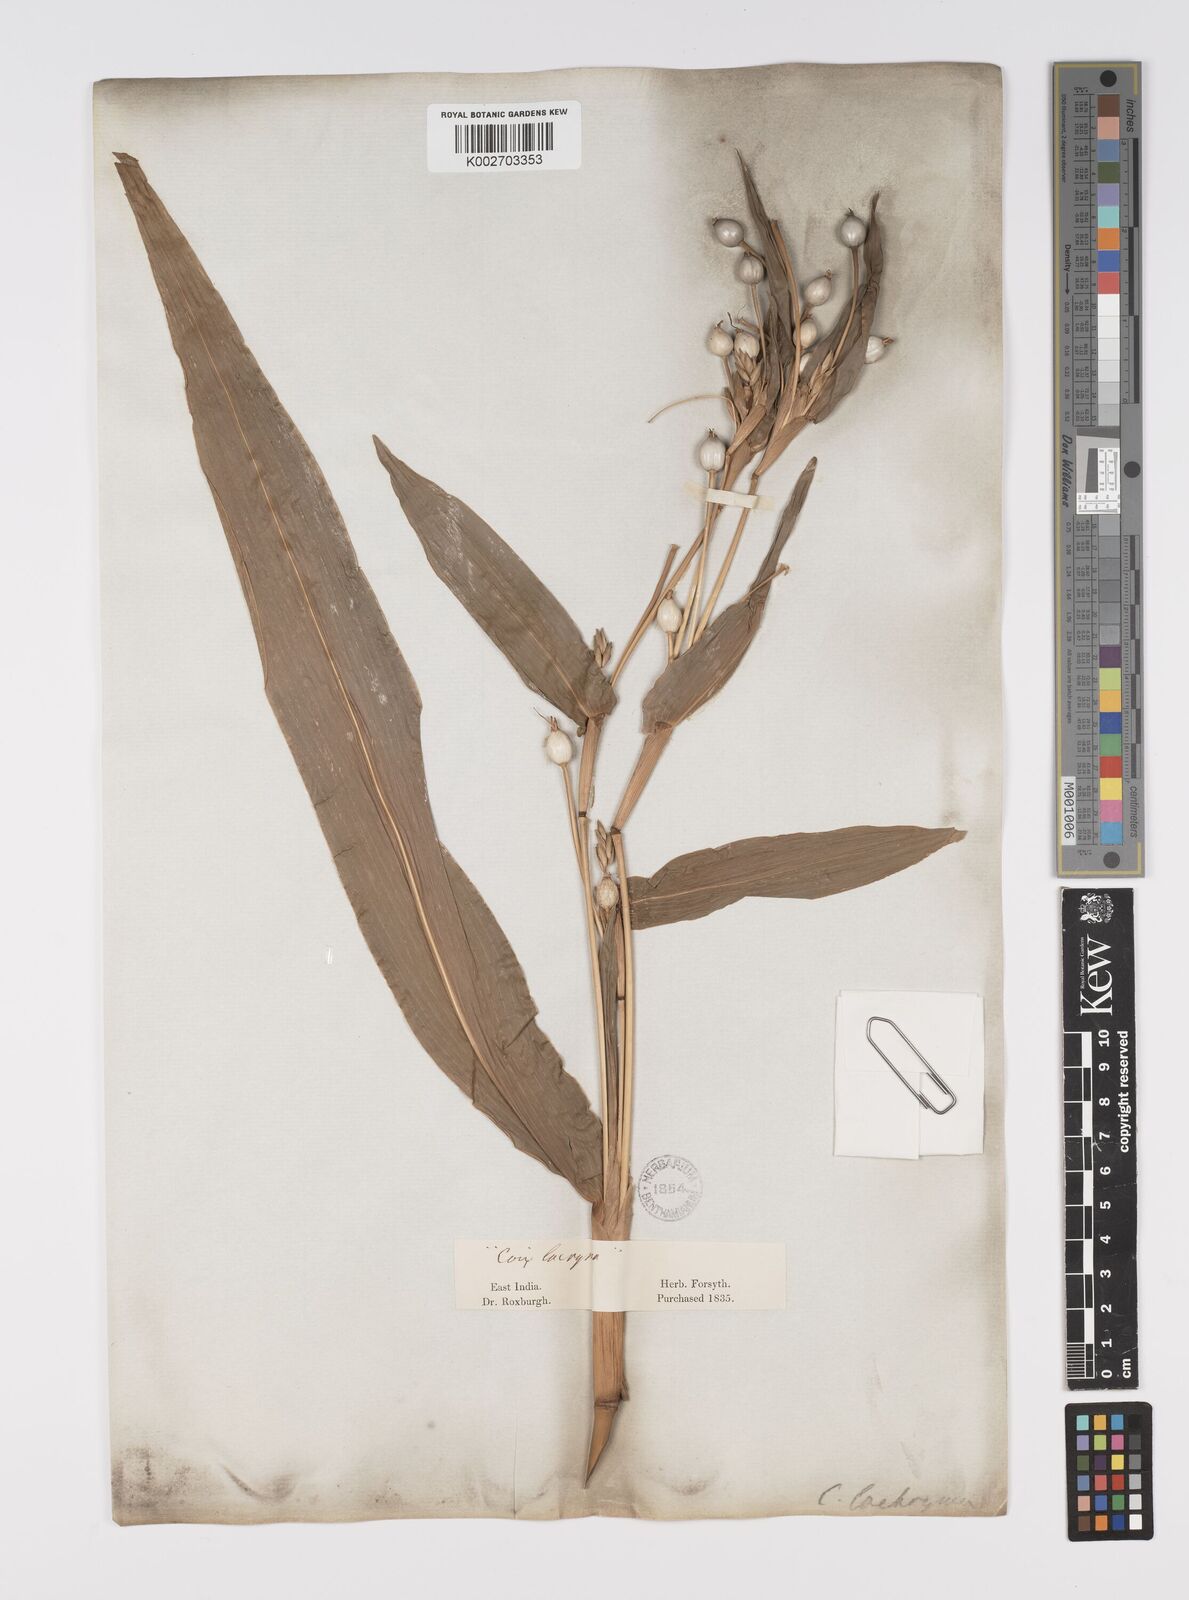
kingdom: Plantae
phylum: Tracheophyta
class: Liliopsida
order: Poales
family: Poaceae
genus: Coix
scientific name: Coix lacryma-jobi
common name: Job's tears
